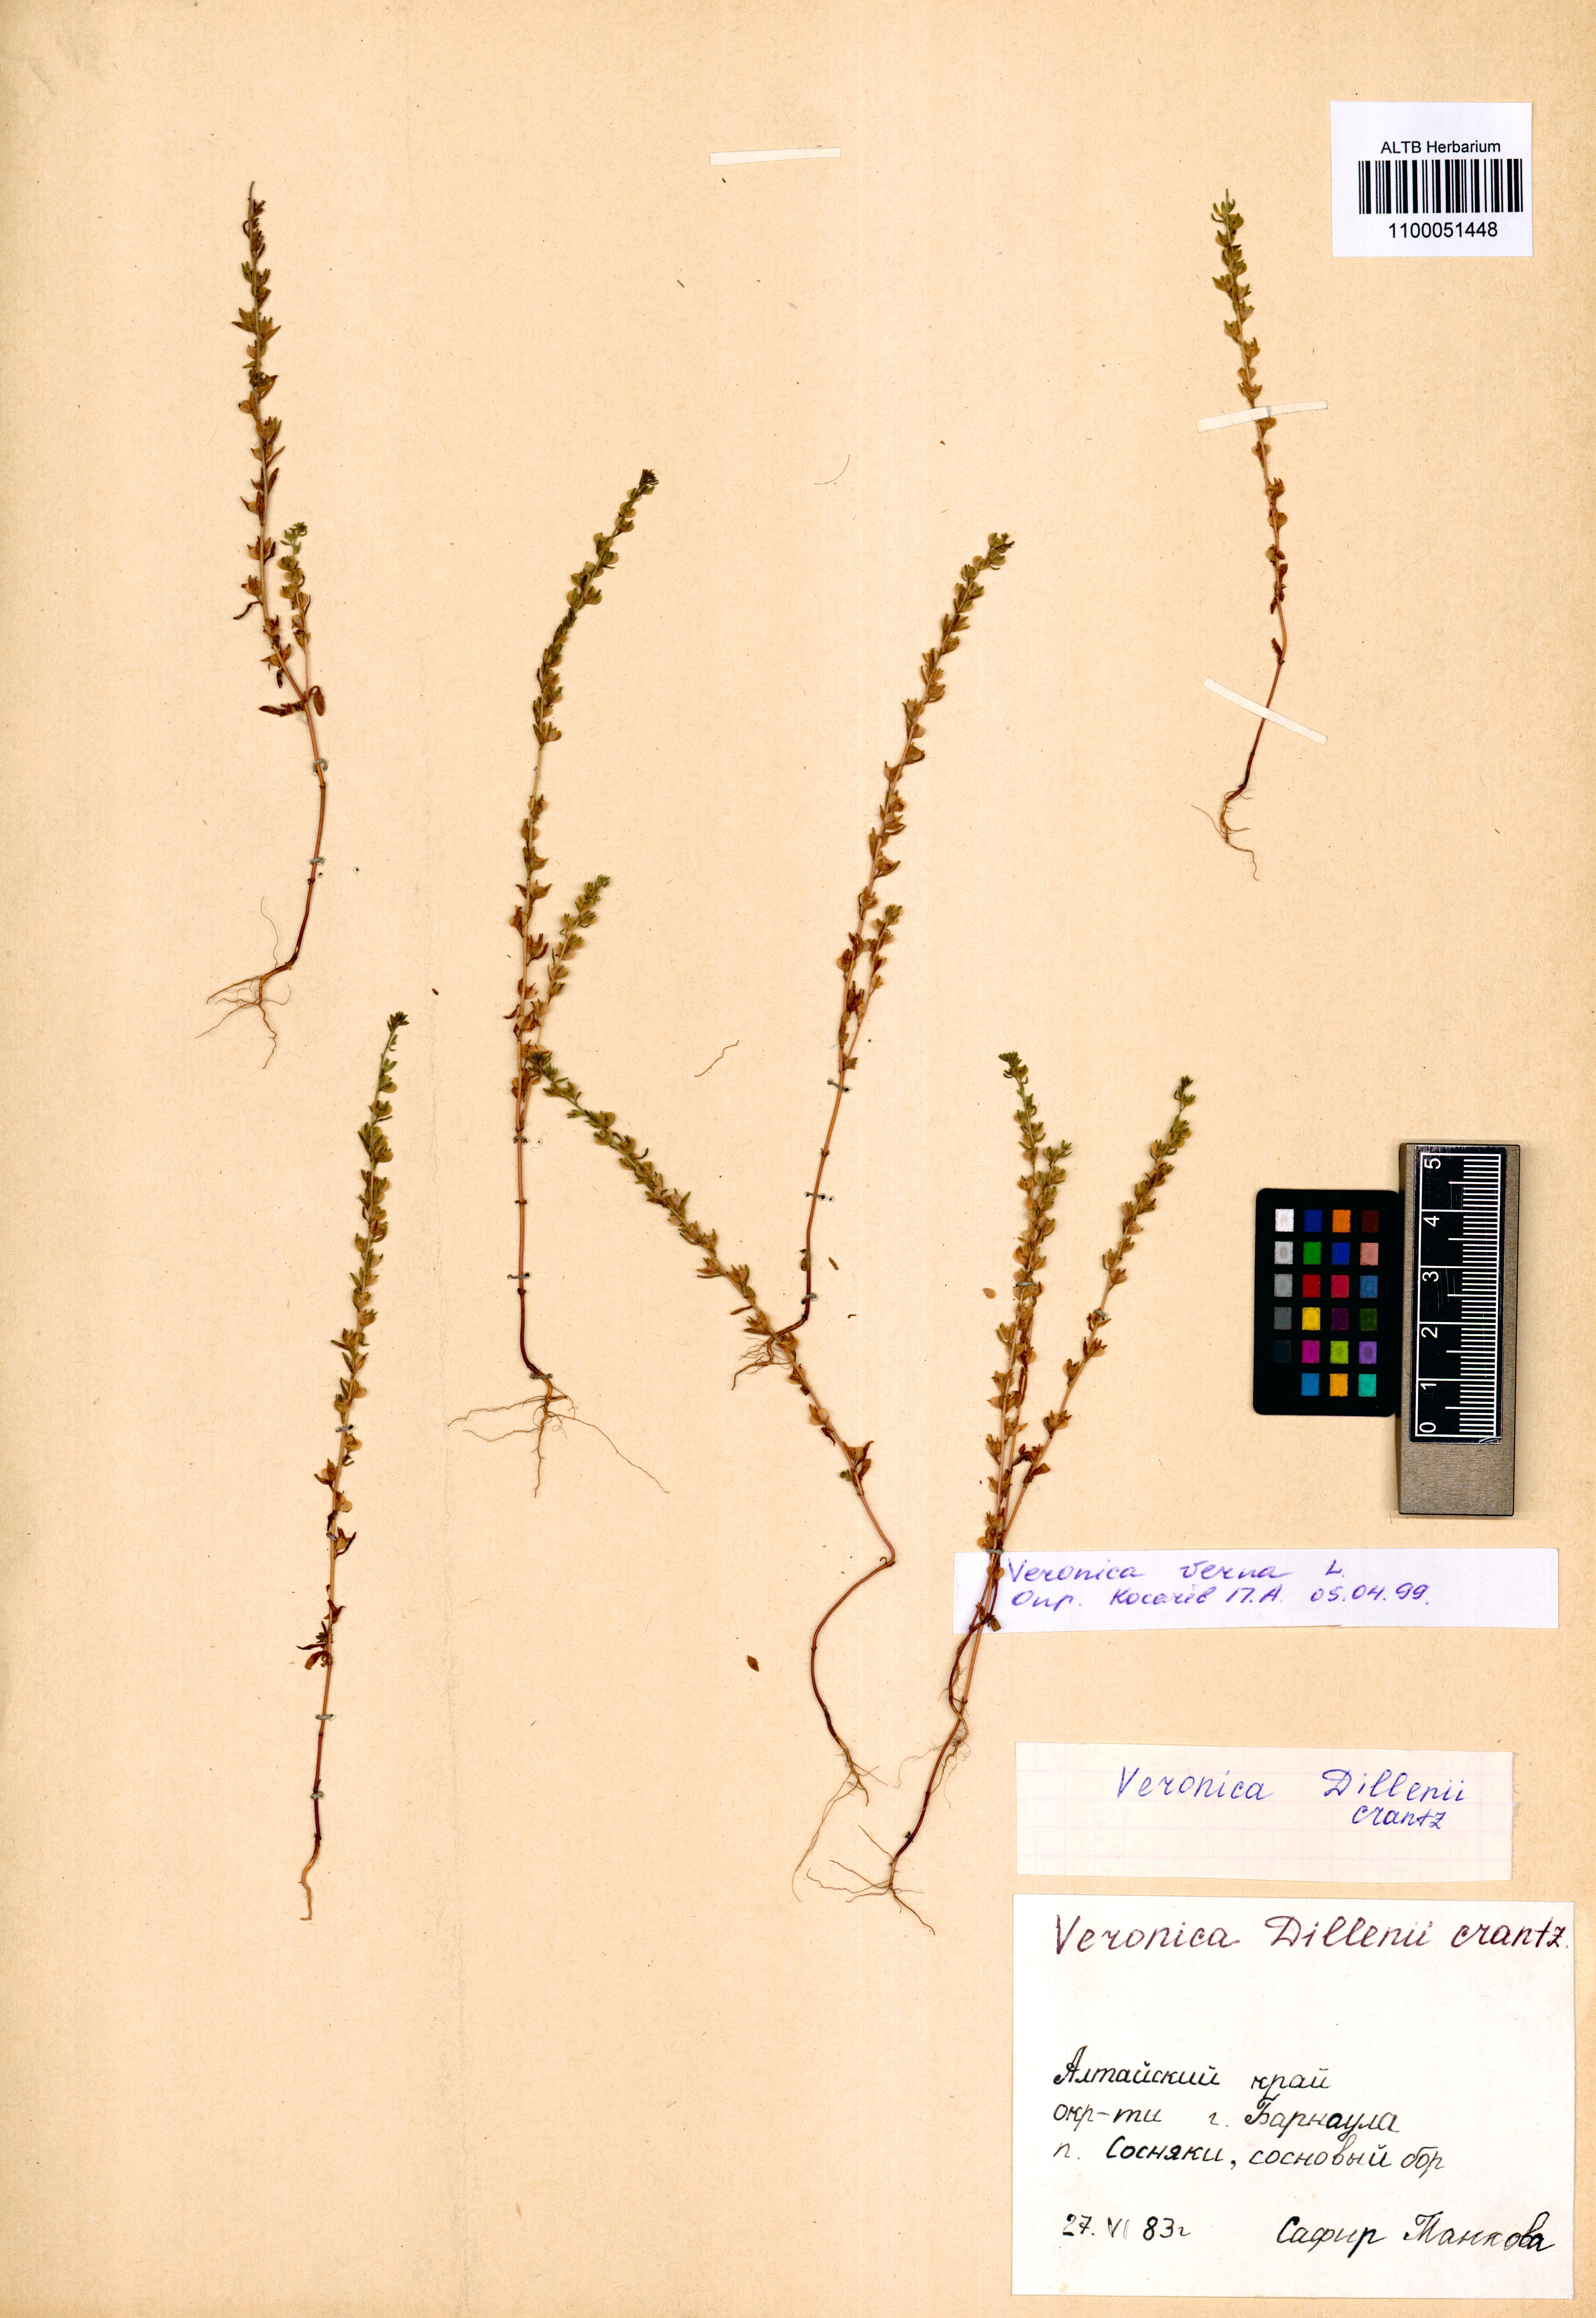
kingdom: Plantae
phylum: Tracheophyta
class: Magnoliopsida
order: Lamiales
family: Plantaginaceae
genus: Veronica
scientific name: Veronica verna
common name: Spring speedwell
